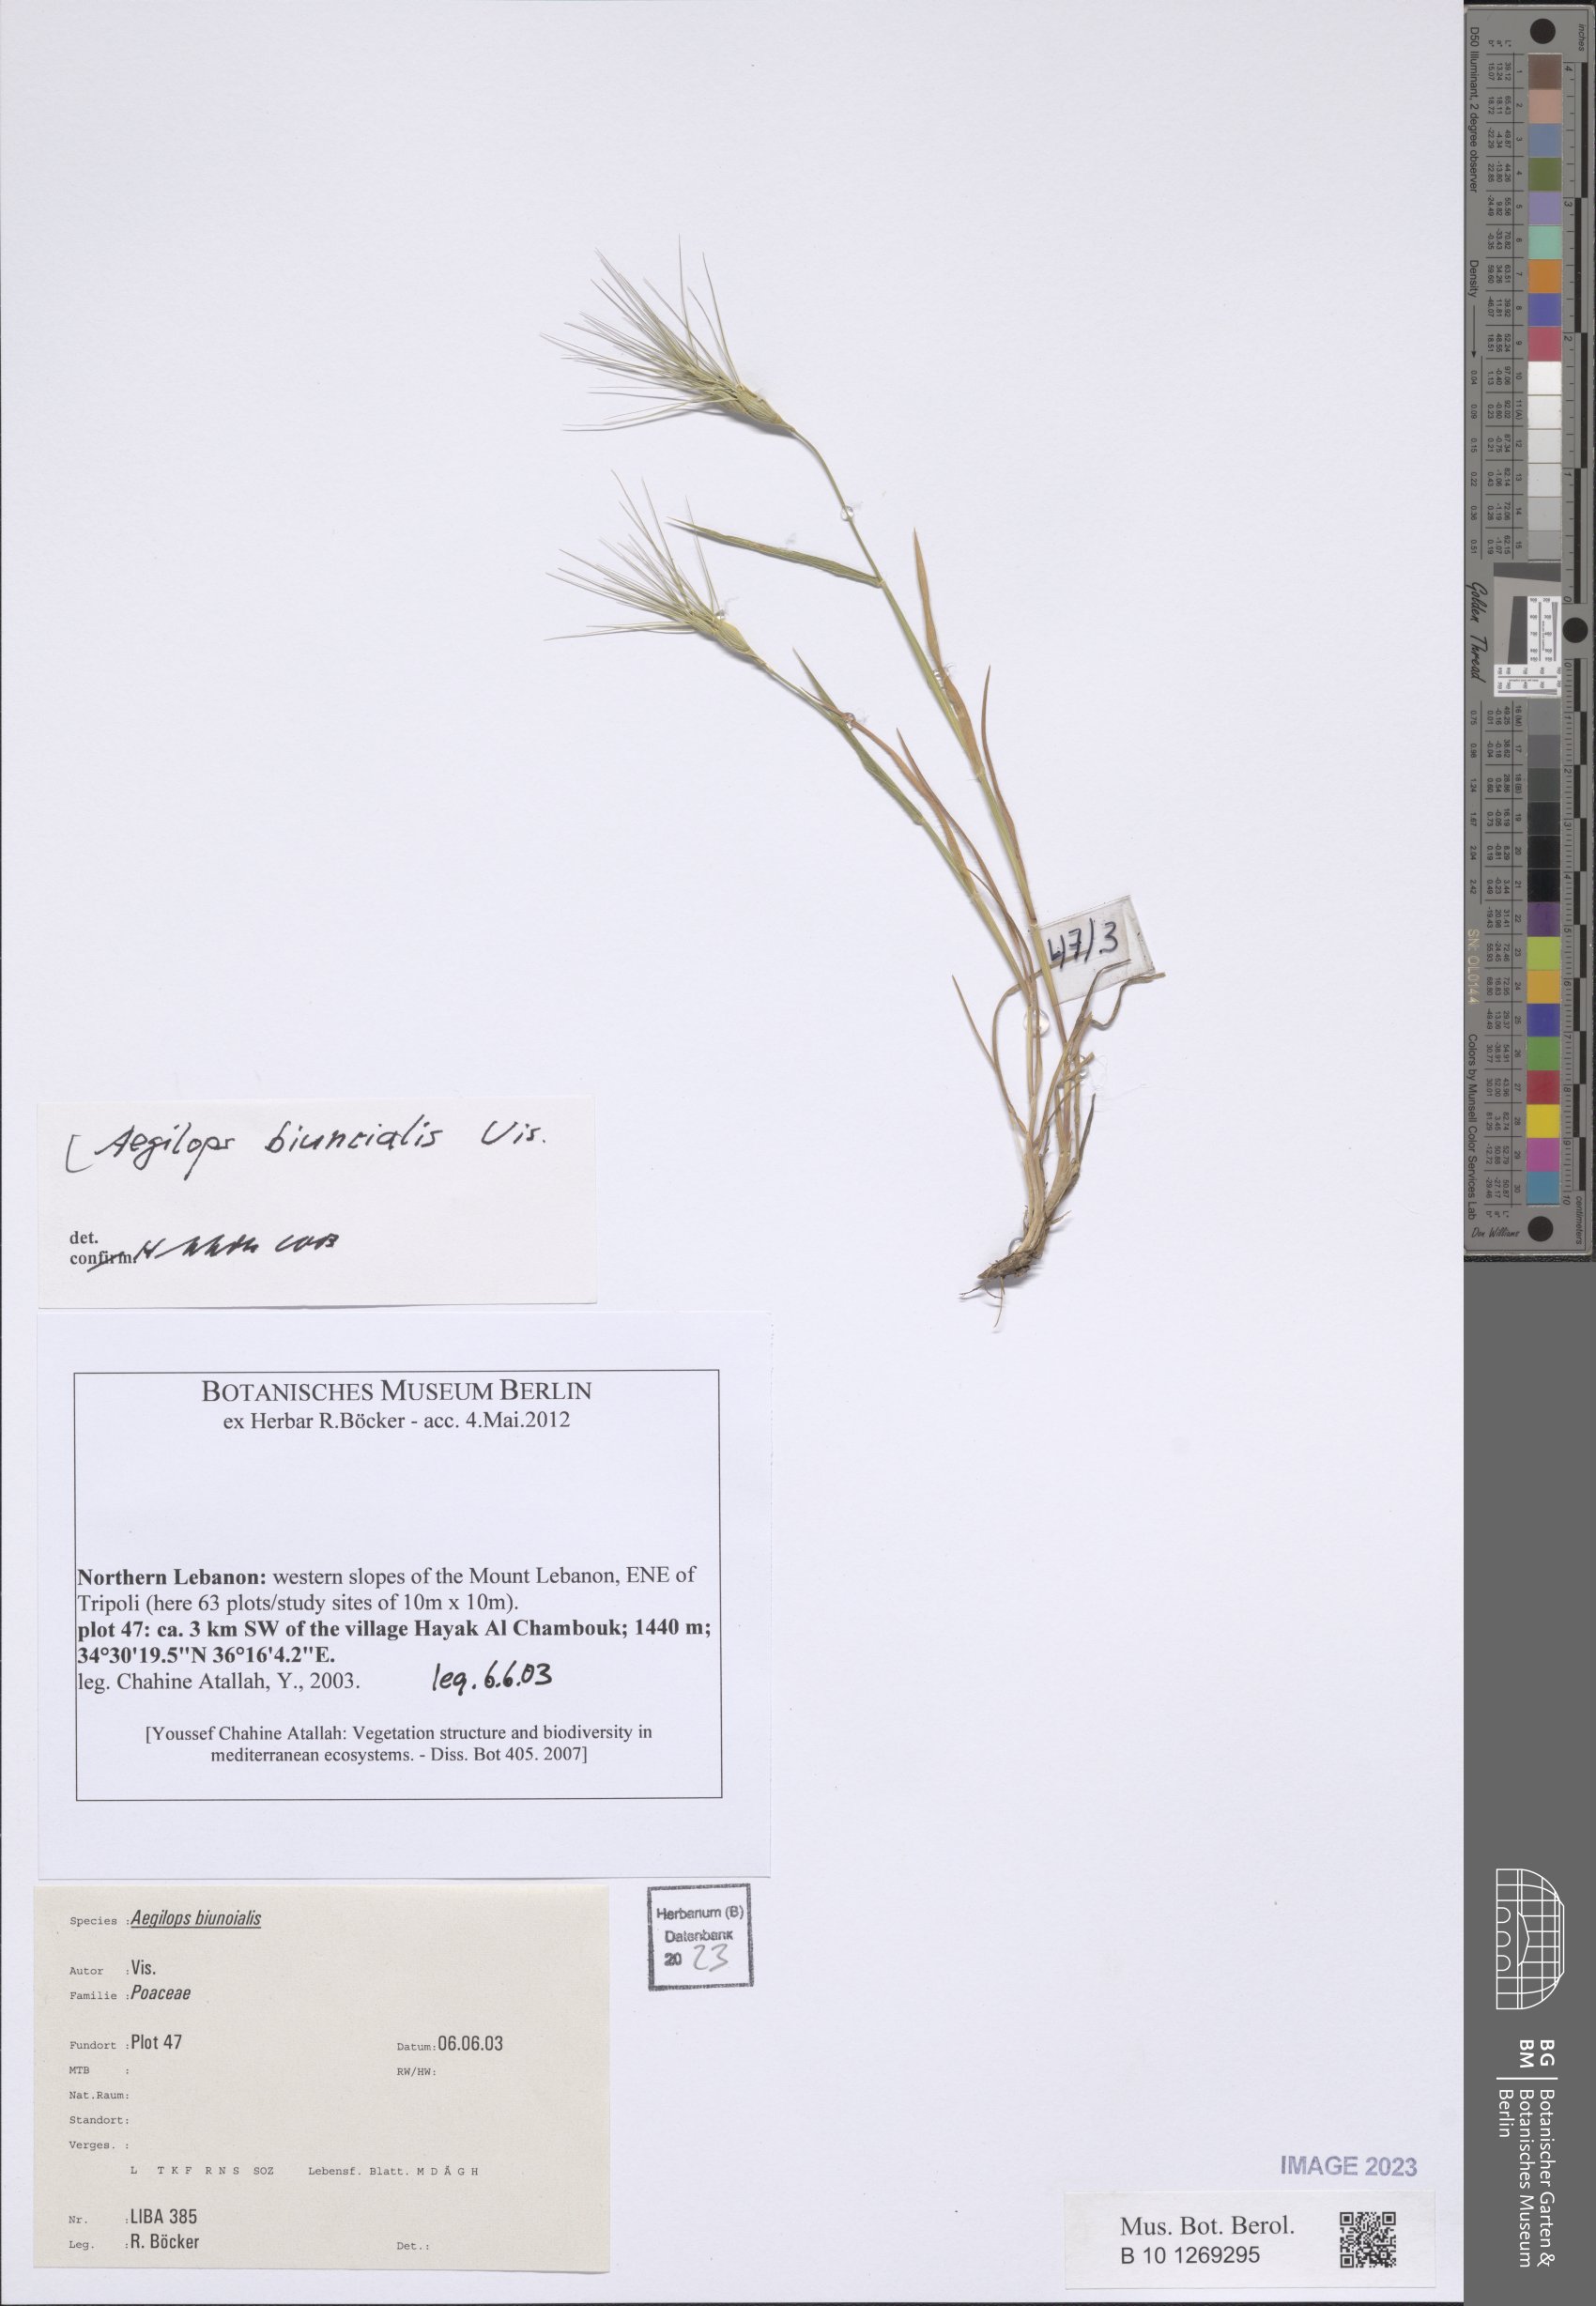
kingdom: Plantae
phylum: Tracheophyta
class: Liliopsida
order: Poales
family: Poaceae
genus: Aegilops
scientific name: Aegilops biuncialis
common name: Mediterranean aegilops
